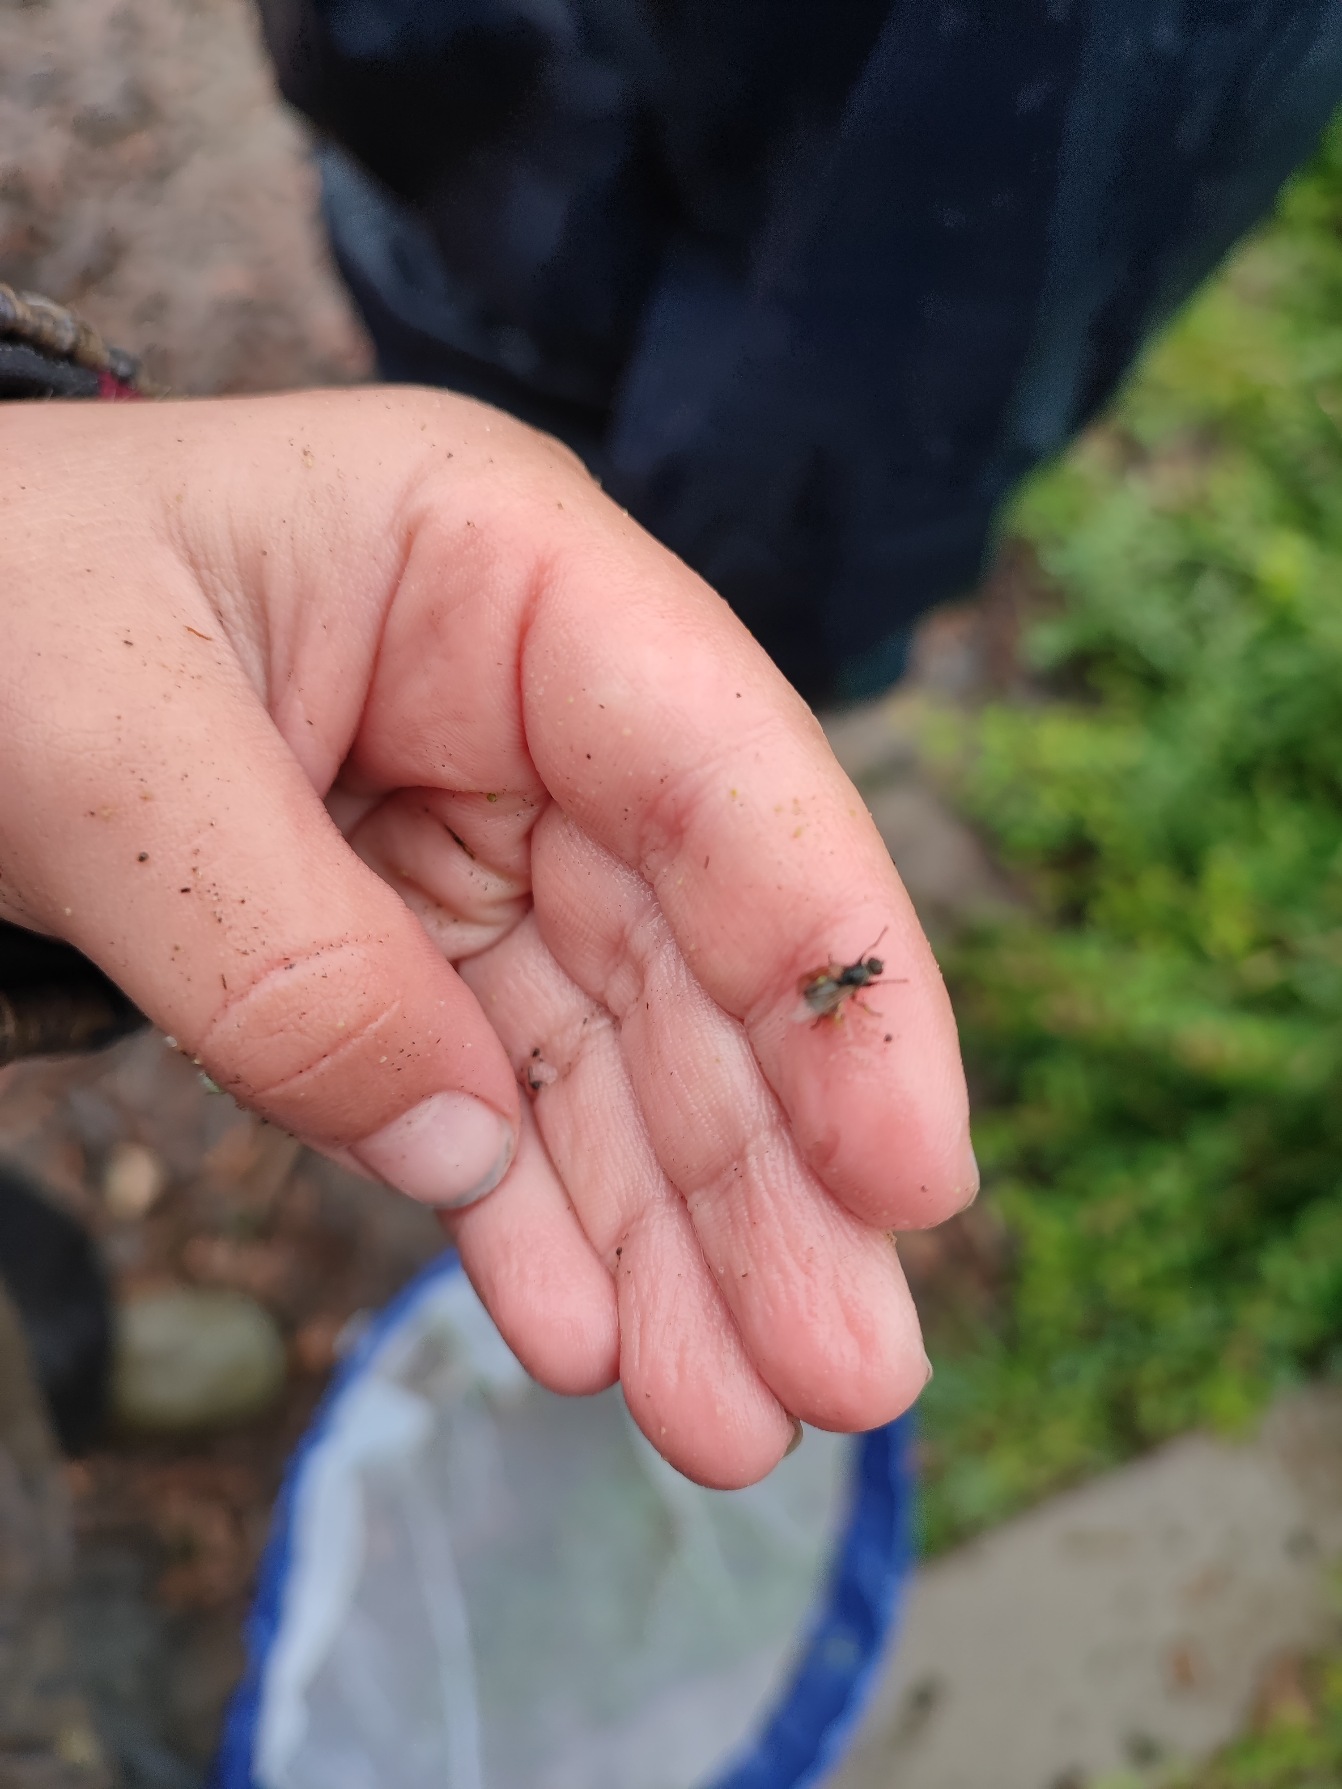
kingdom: Animalia
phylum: Arthropoda
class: Insecta
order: Diptera
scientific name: Diptera
